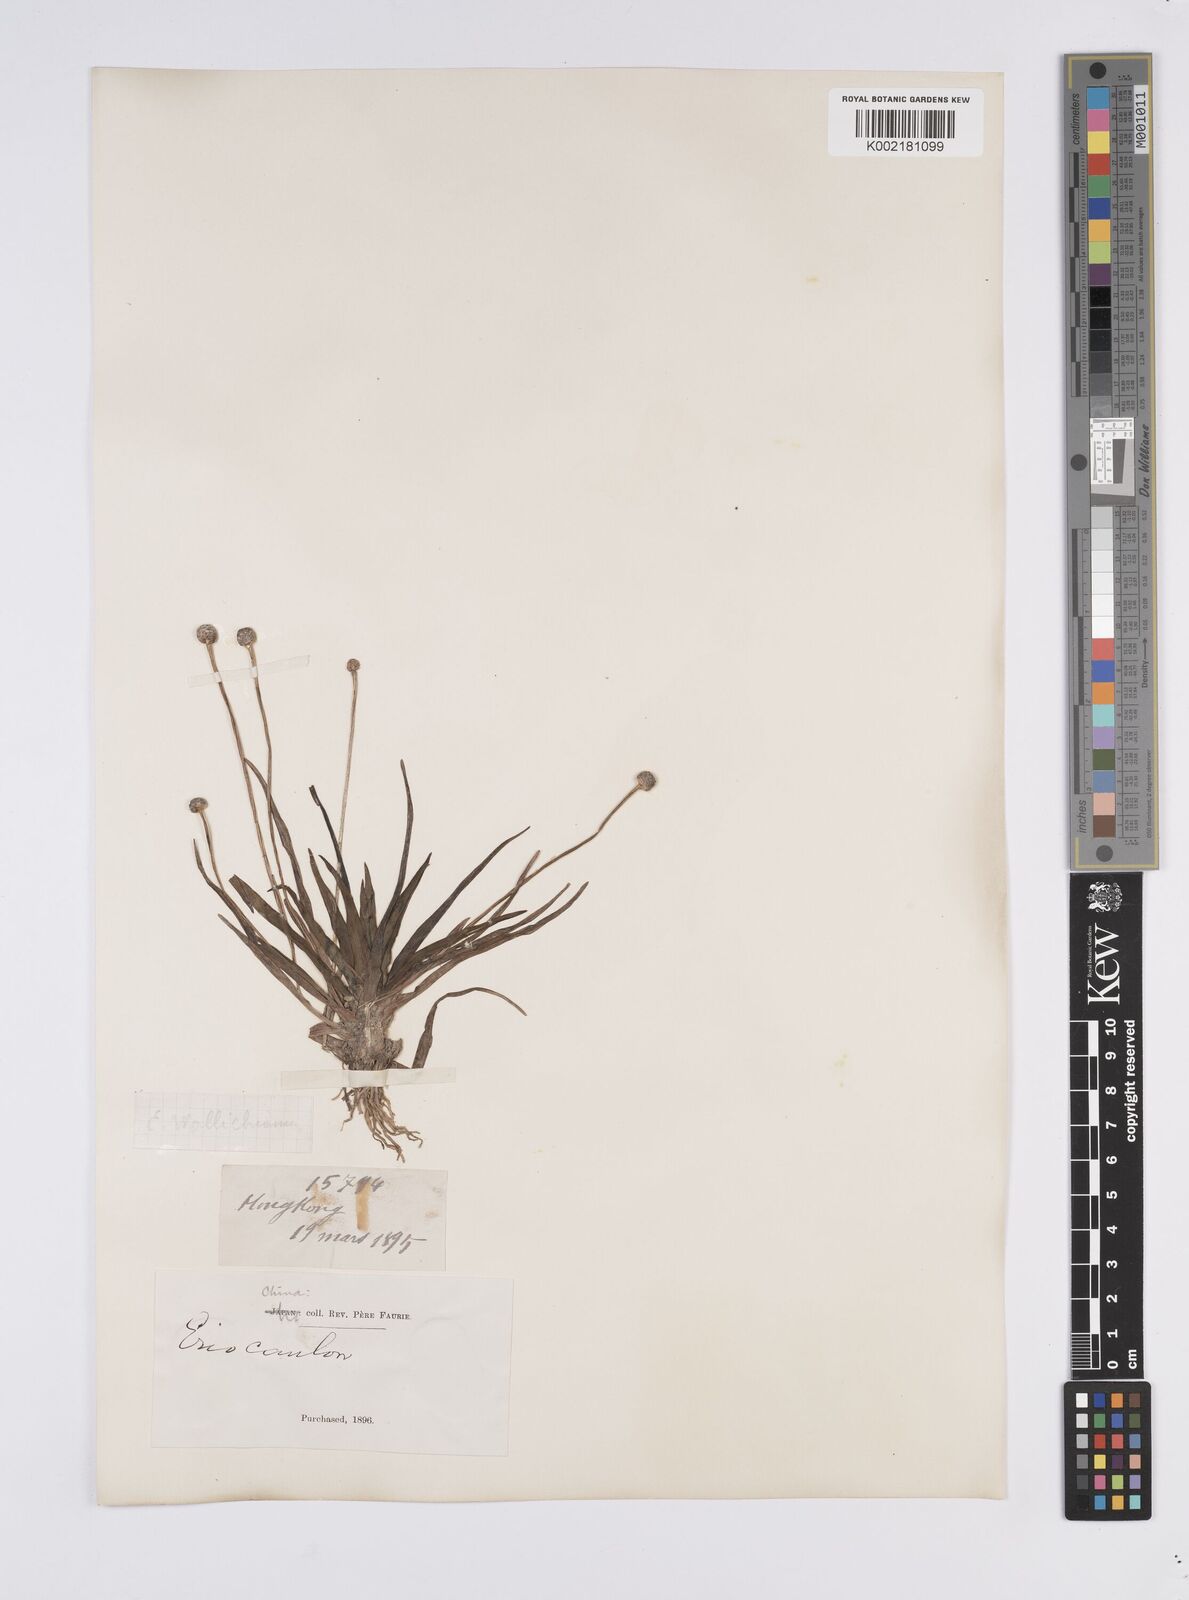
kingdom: Plantae
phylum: Tracheophyta
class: Liliopsida
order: Poales
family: Eriocaulaceae
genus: Eriocaulon
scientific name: Eriocaulon sexangulare
